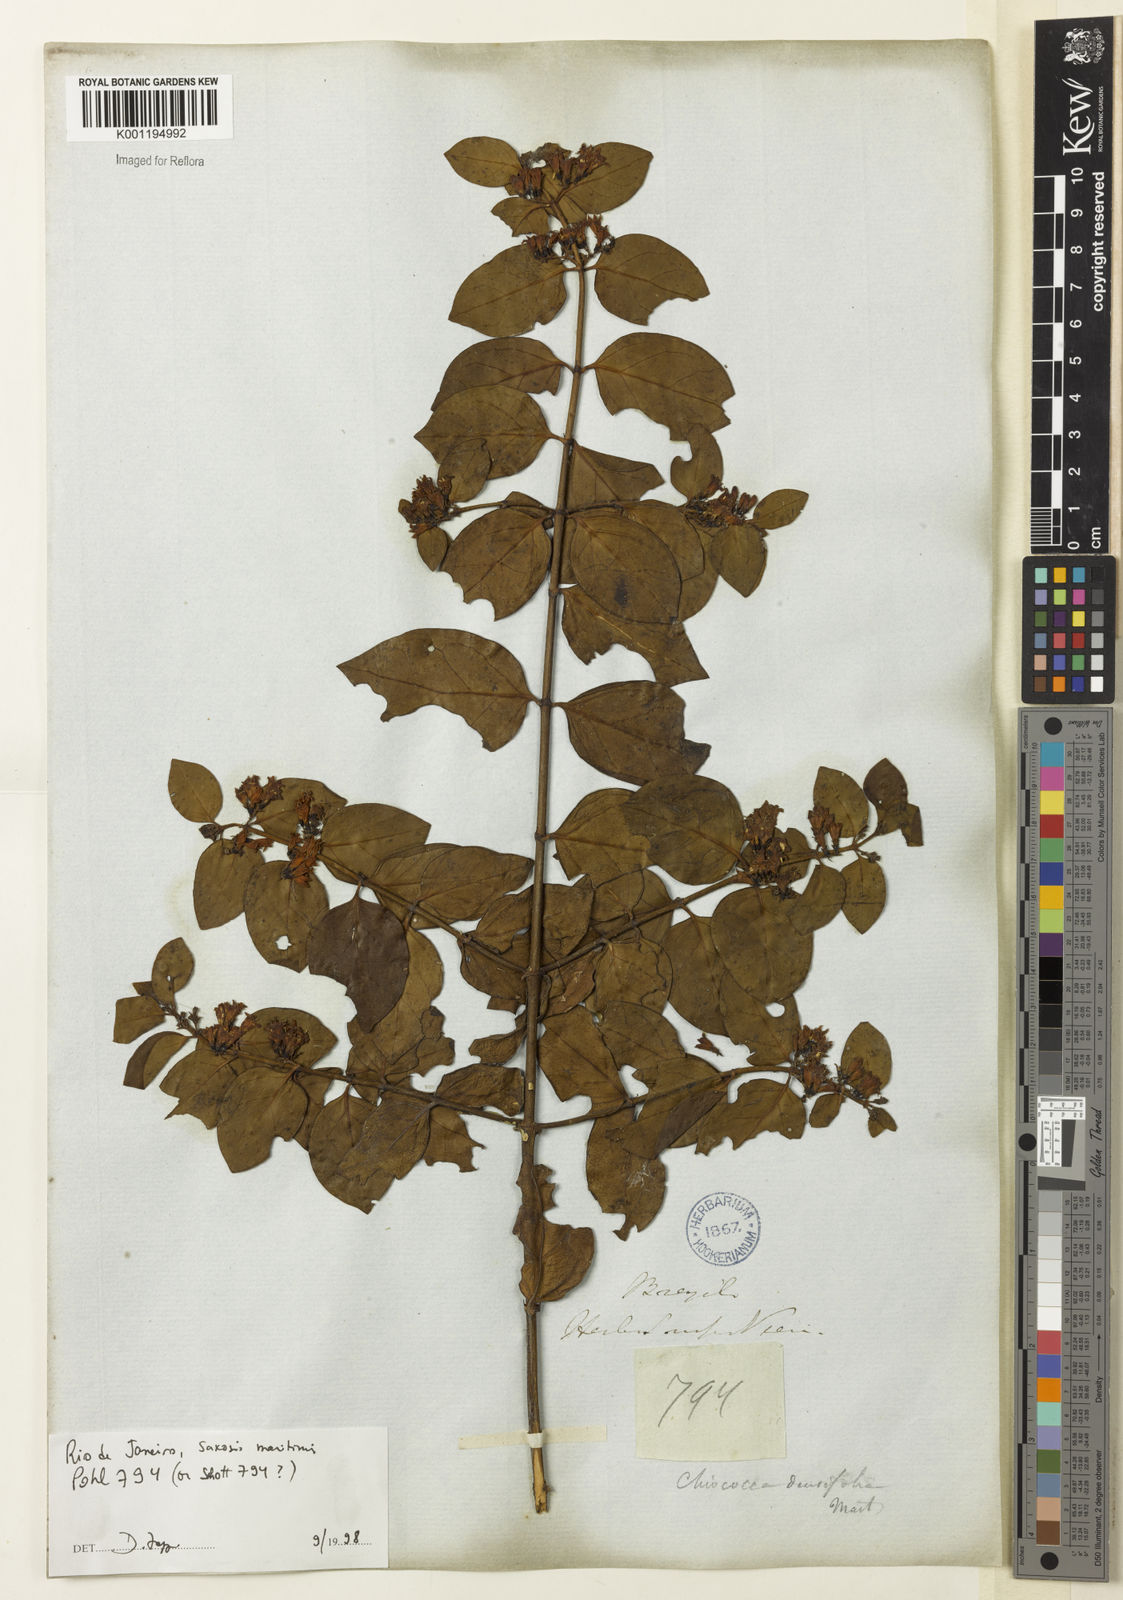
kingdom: Plantae
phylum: Tracheophyta
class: Magnoliopsida
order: Gentianales
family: Rubiaceae
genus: Chiococca
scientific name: Chiococca alba
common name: Snowberry
